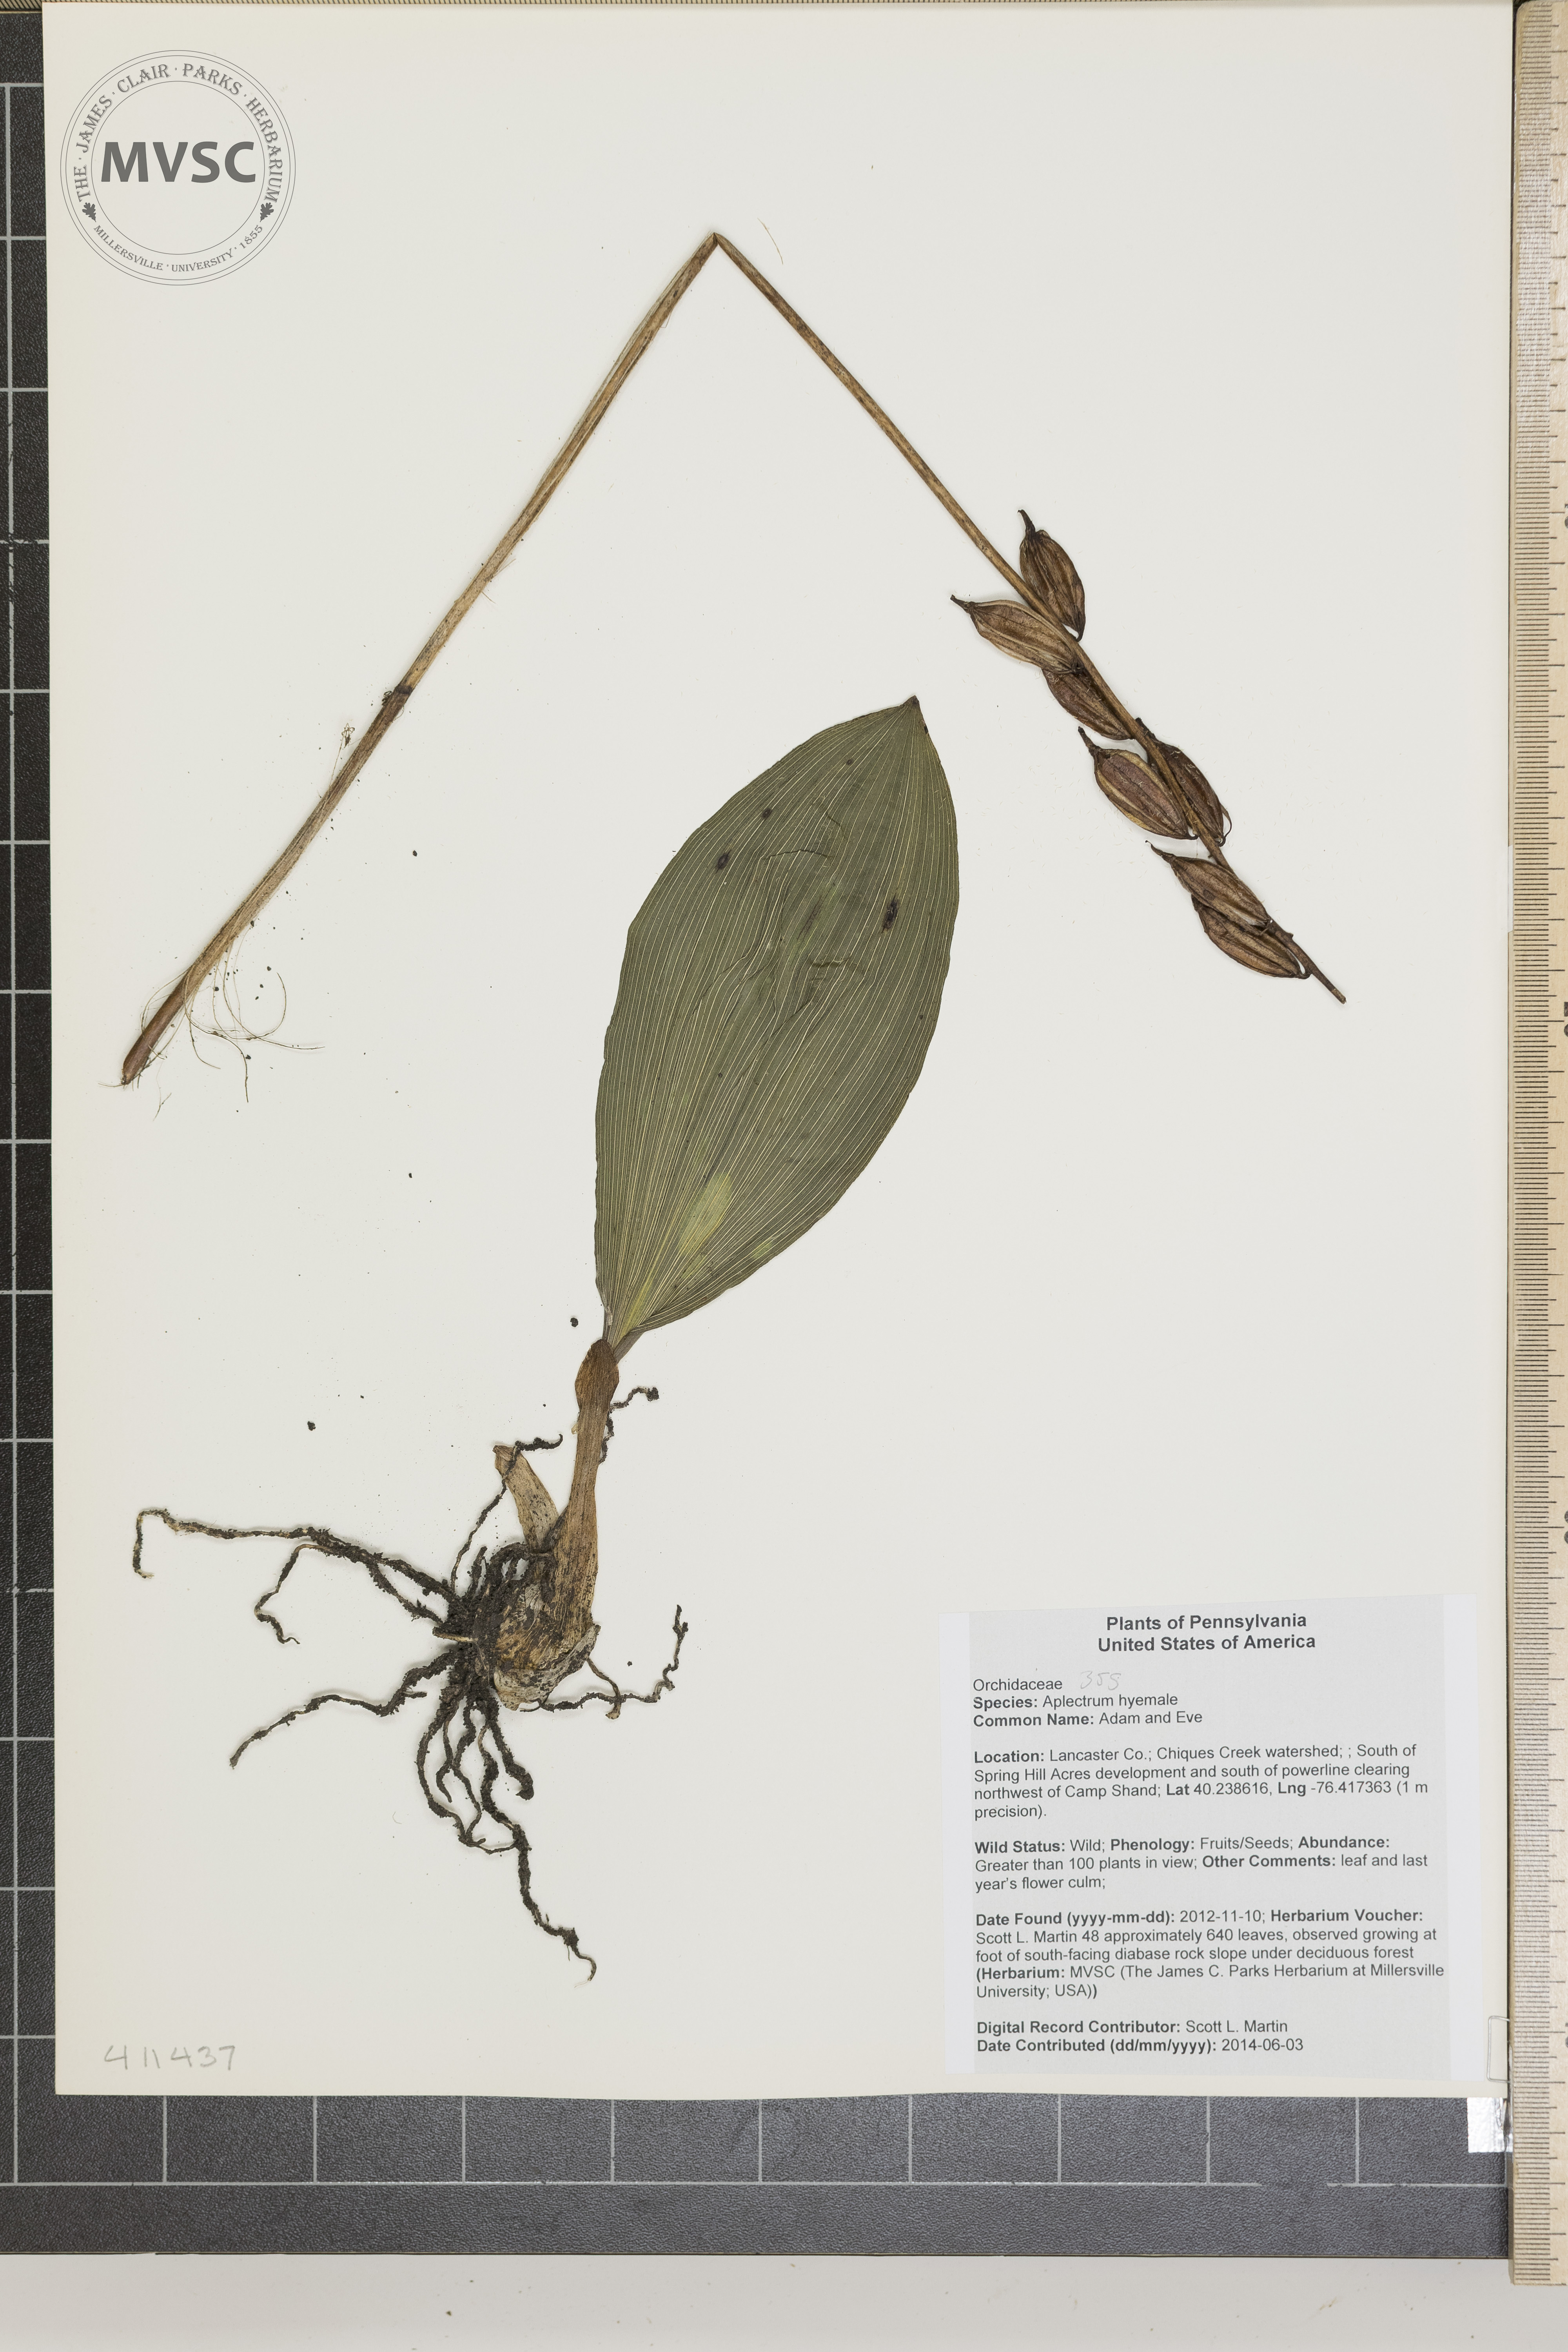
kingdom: Plantae
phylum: Tracheophyta
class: Liliopsida
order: Asparagales
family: Orchidaceae
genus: Aplectrum
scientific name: Aplectrum hyemale
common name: Adam and Eve
